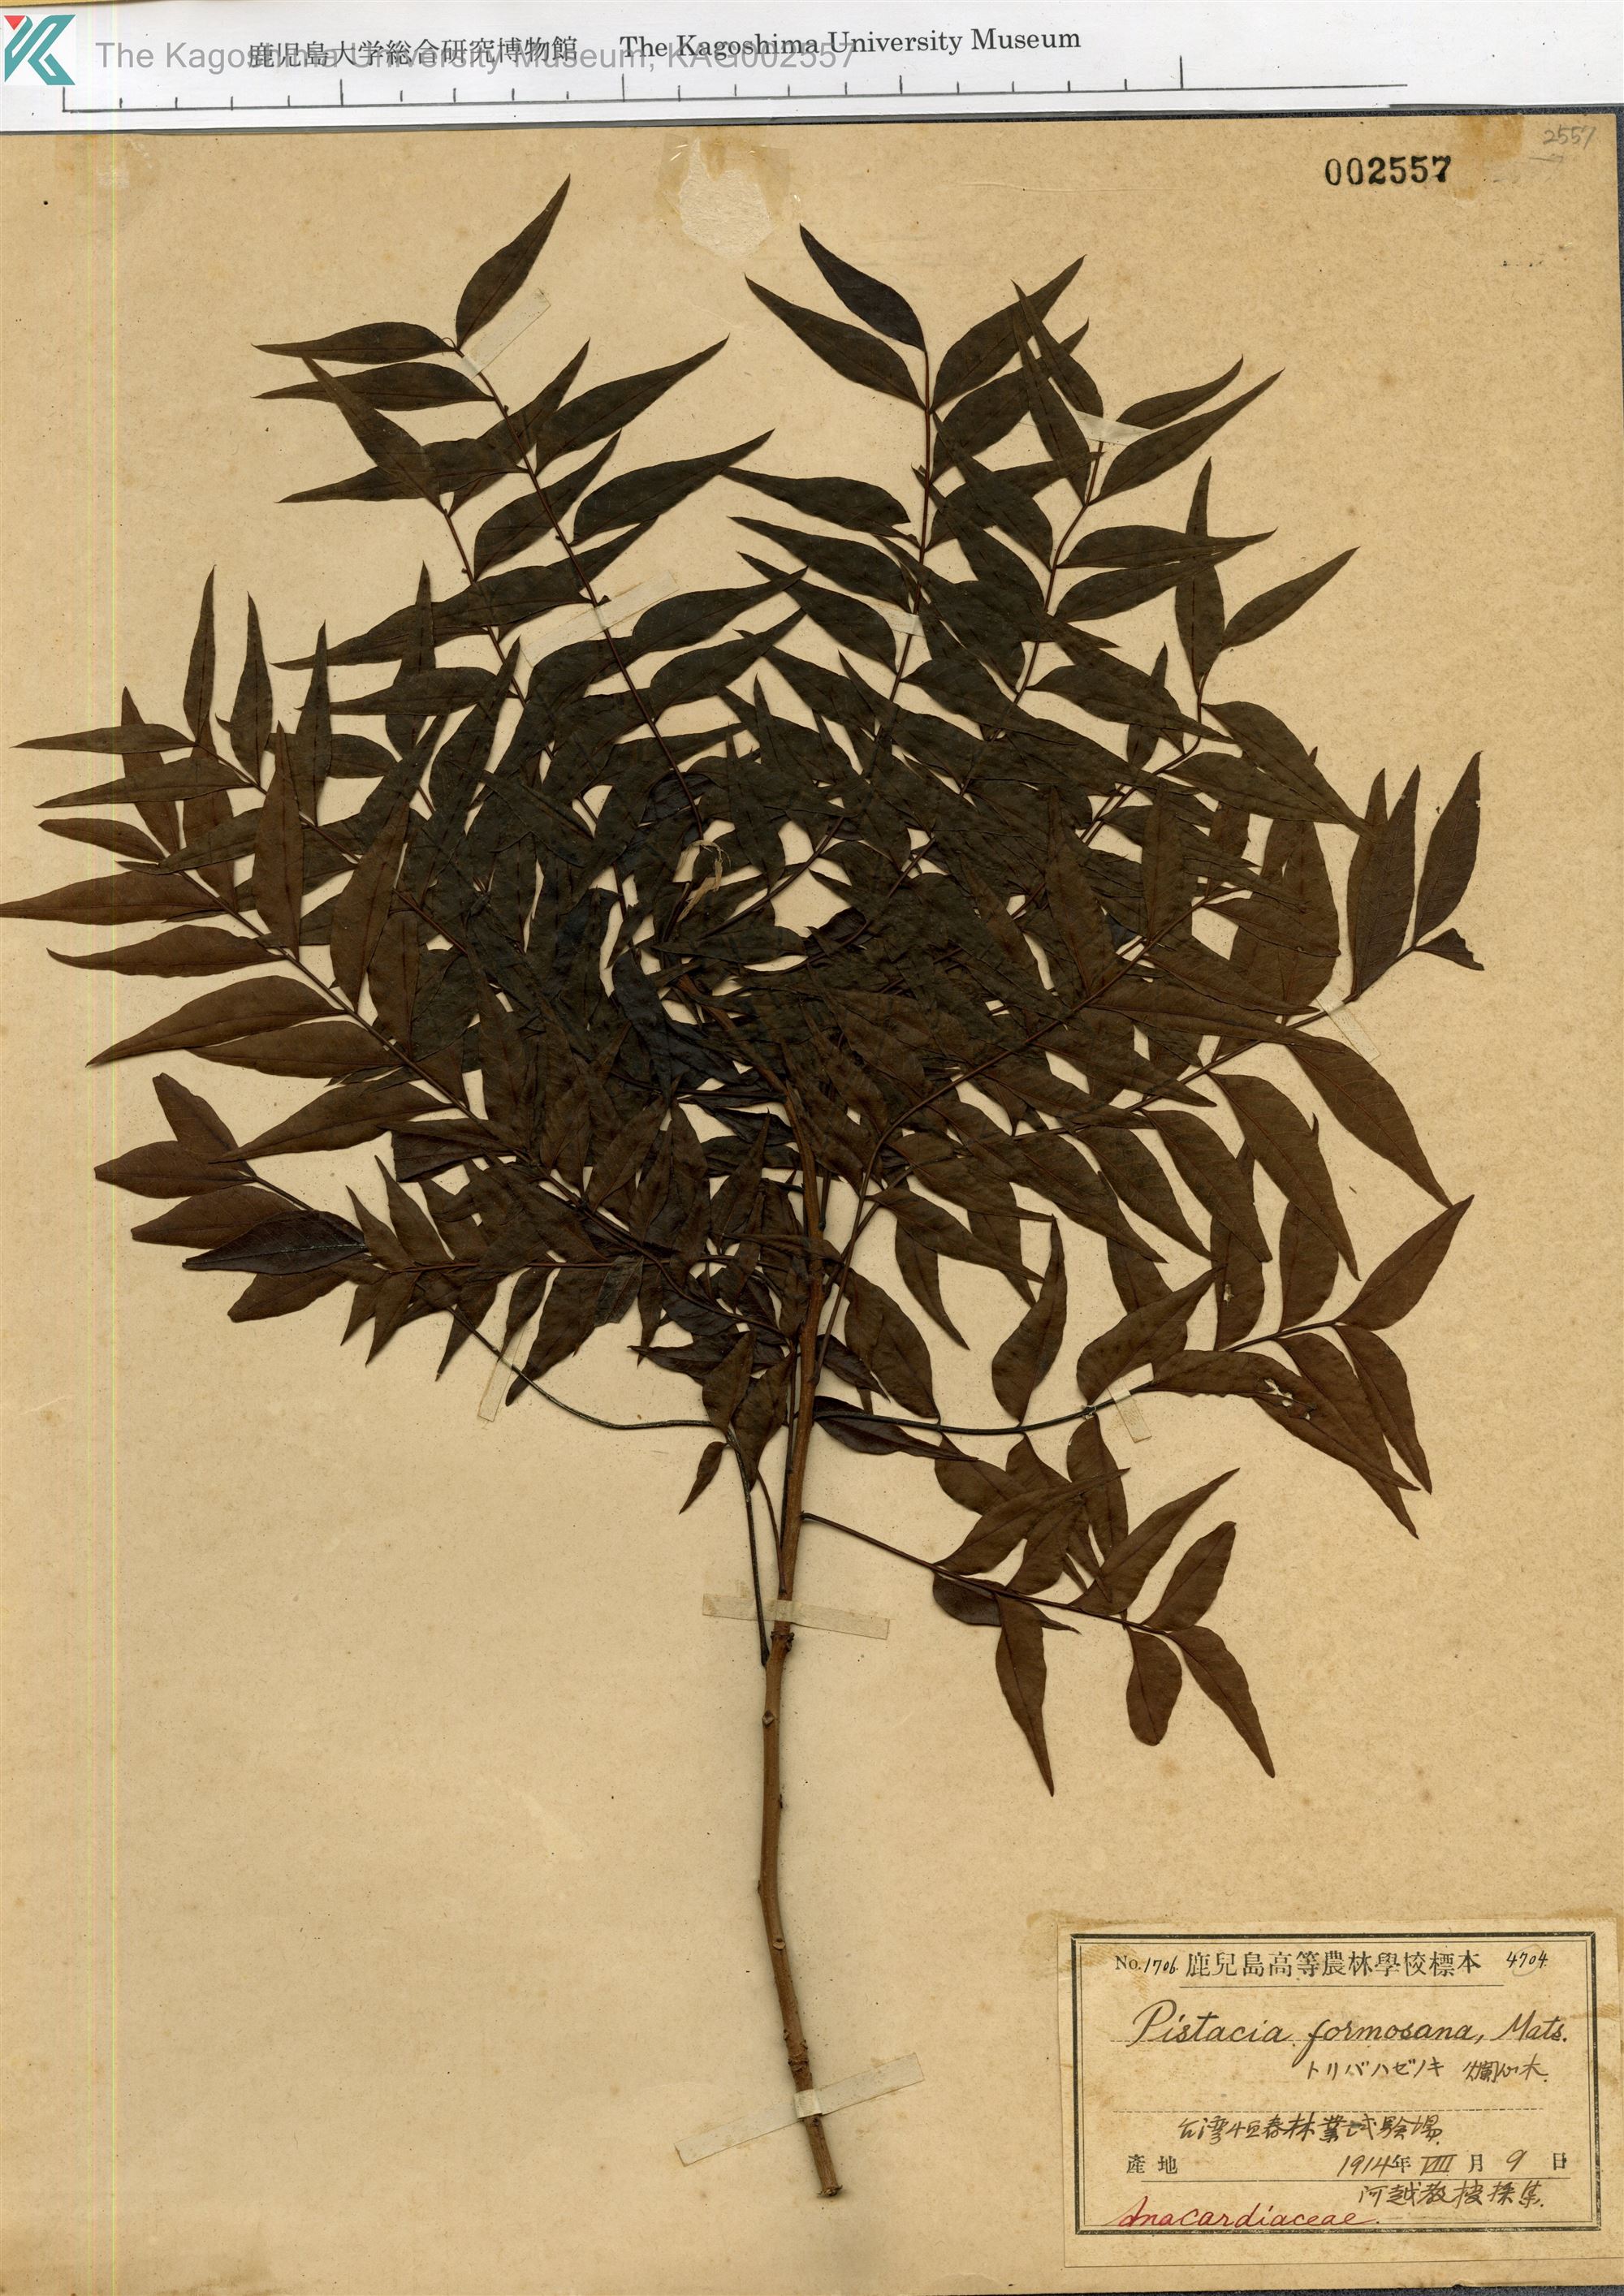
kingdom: Plantae
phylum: Tracheophyta
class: Magnoliopsida
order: Sapindales
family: Anacardiaceae
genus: Pistacia
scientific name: Pistacia chinensis
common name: Chinese pistache
